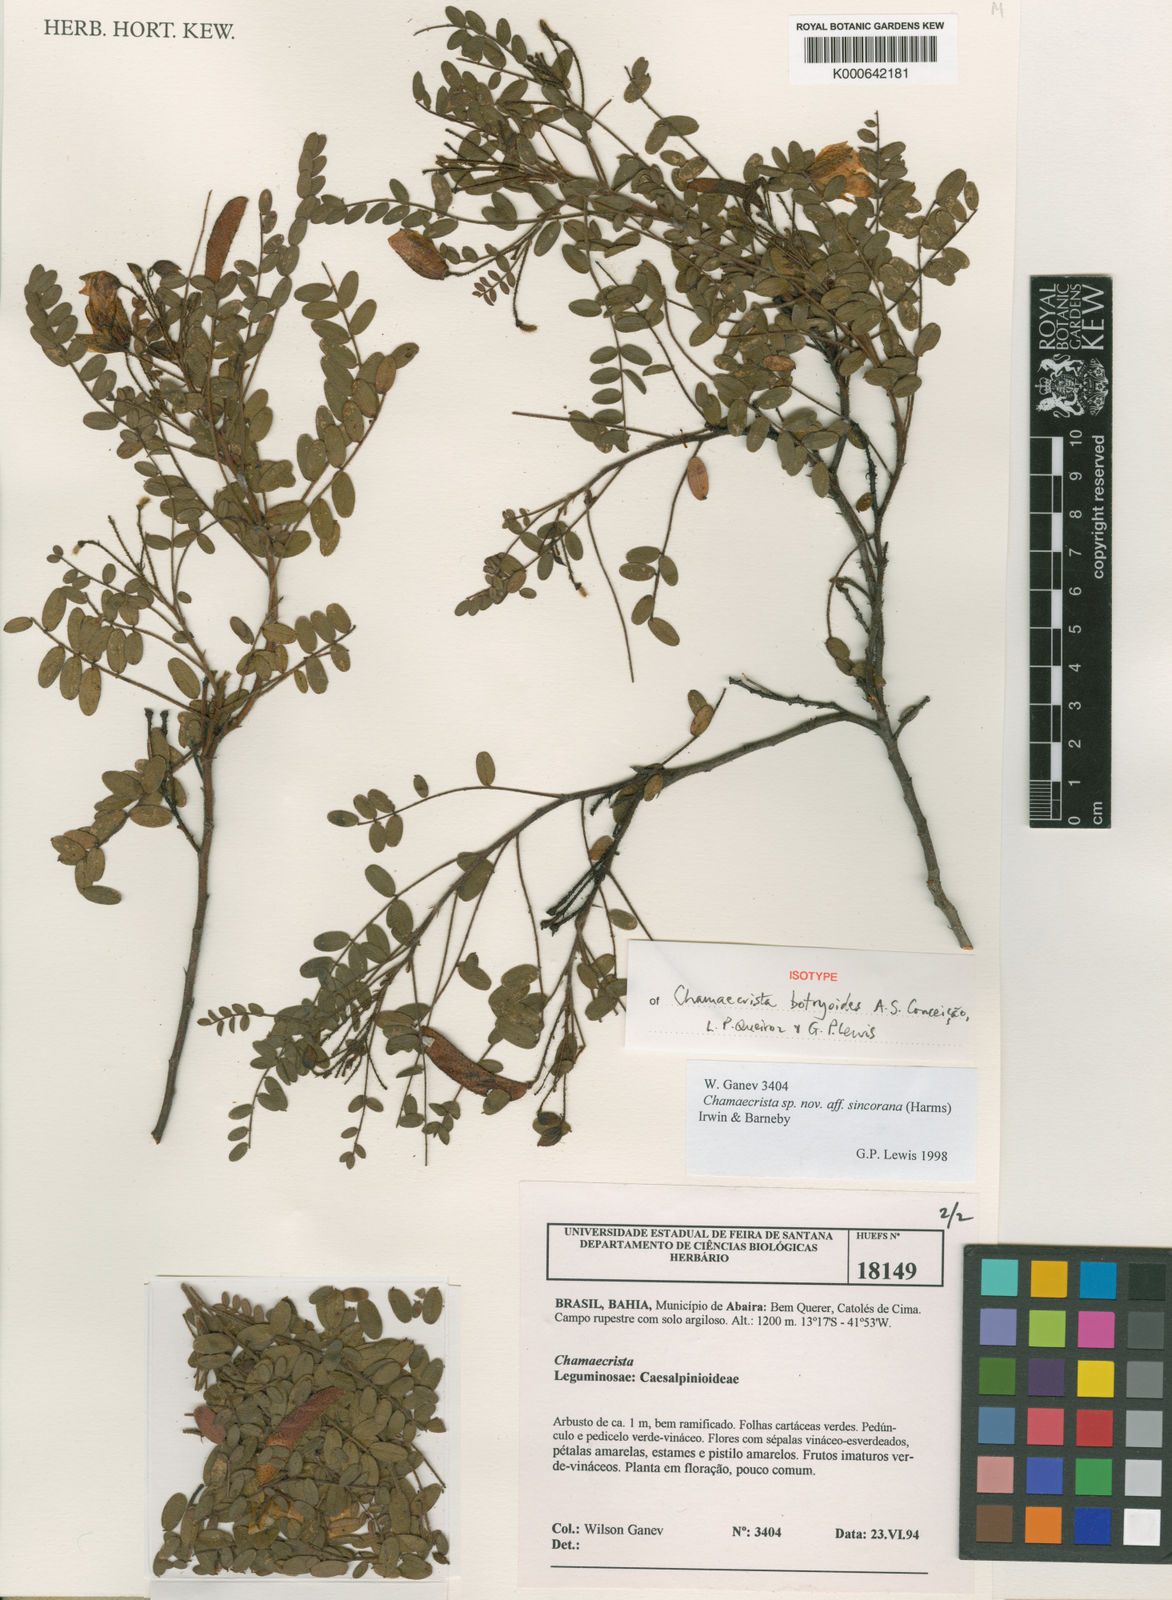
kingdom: Plantae
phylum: Tracheophyta
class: Magnoliopsida
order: Fabales
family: Fabaceae
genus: Chamaecrista
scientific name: Chamaecrista botryoides
